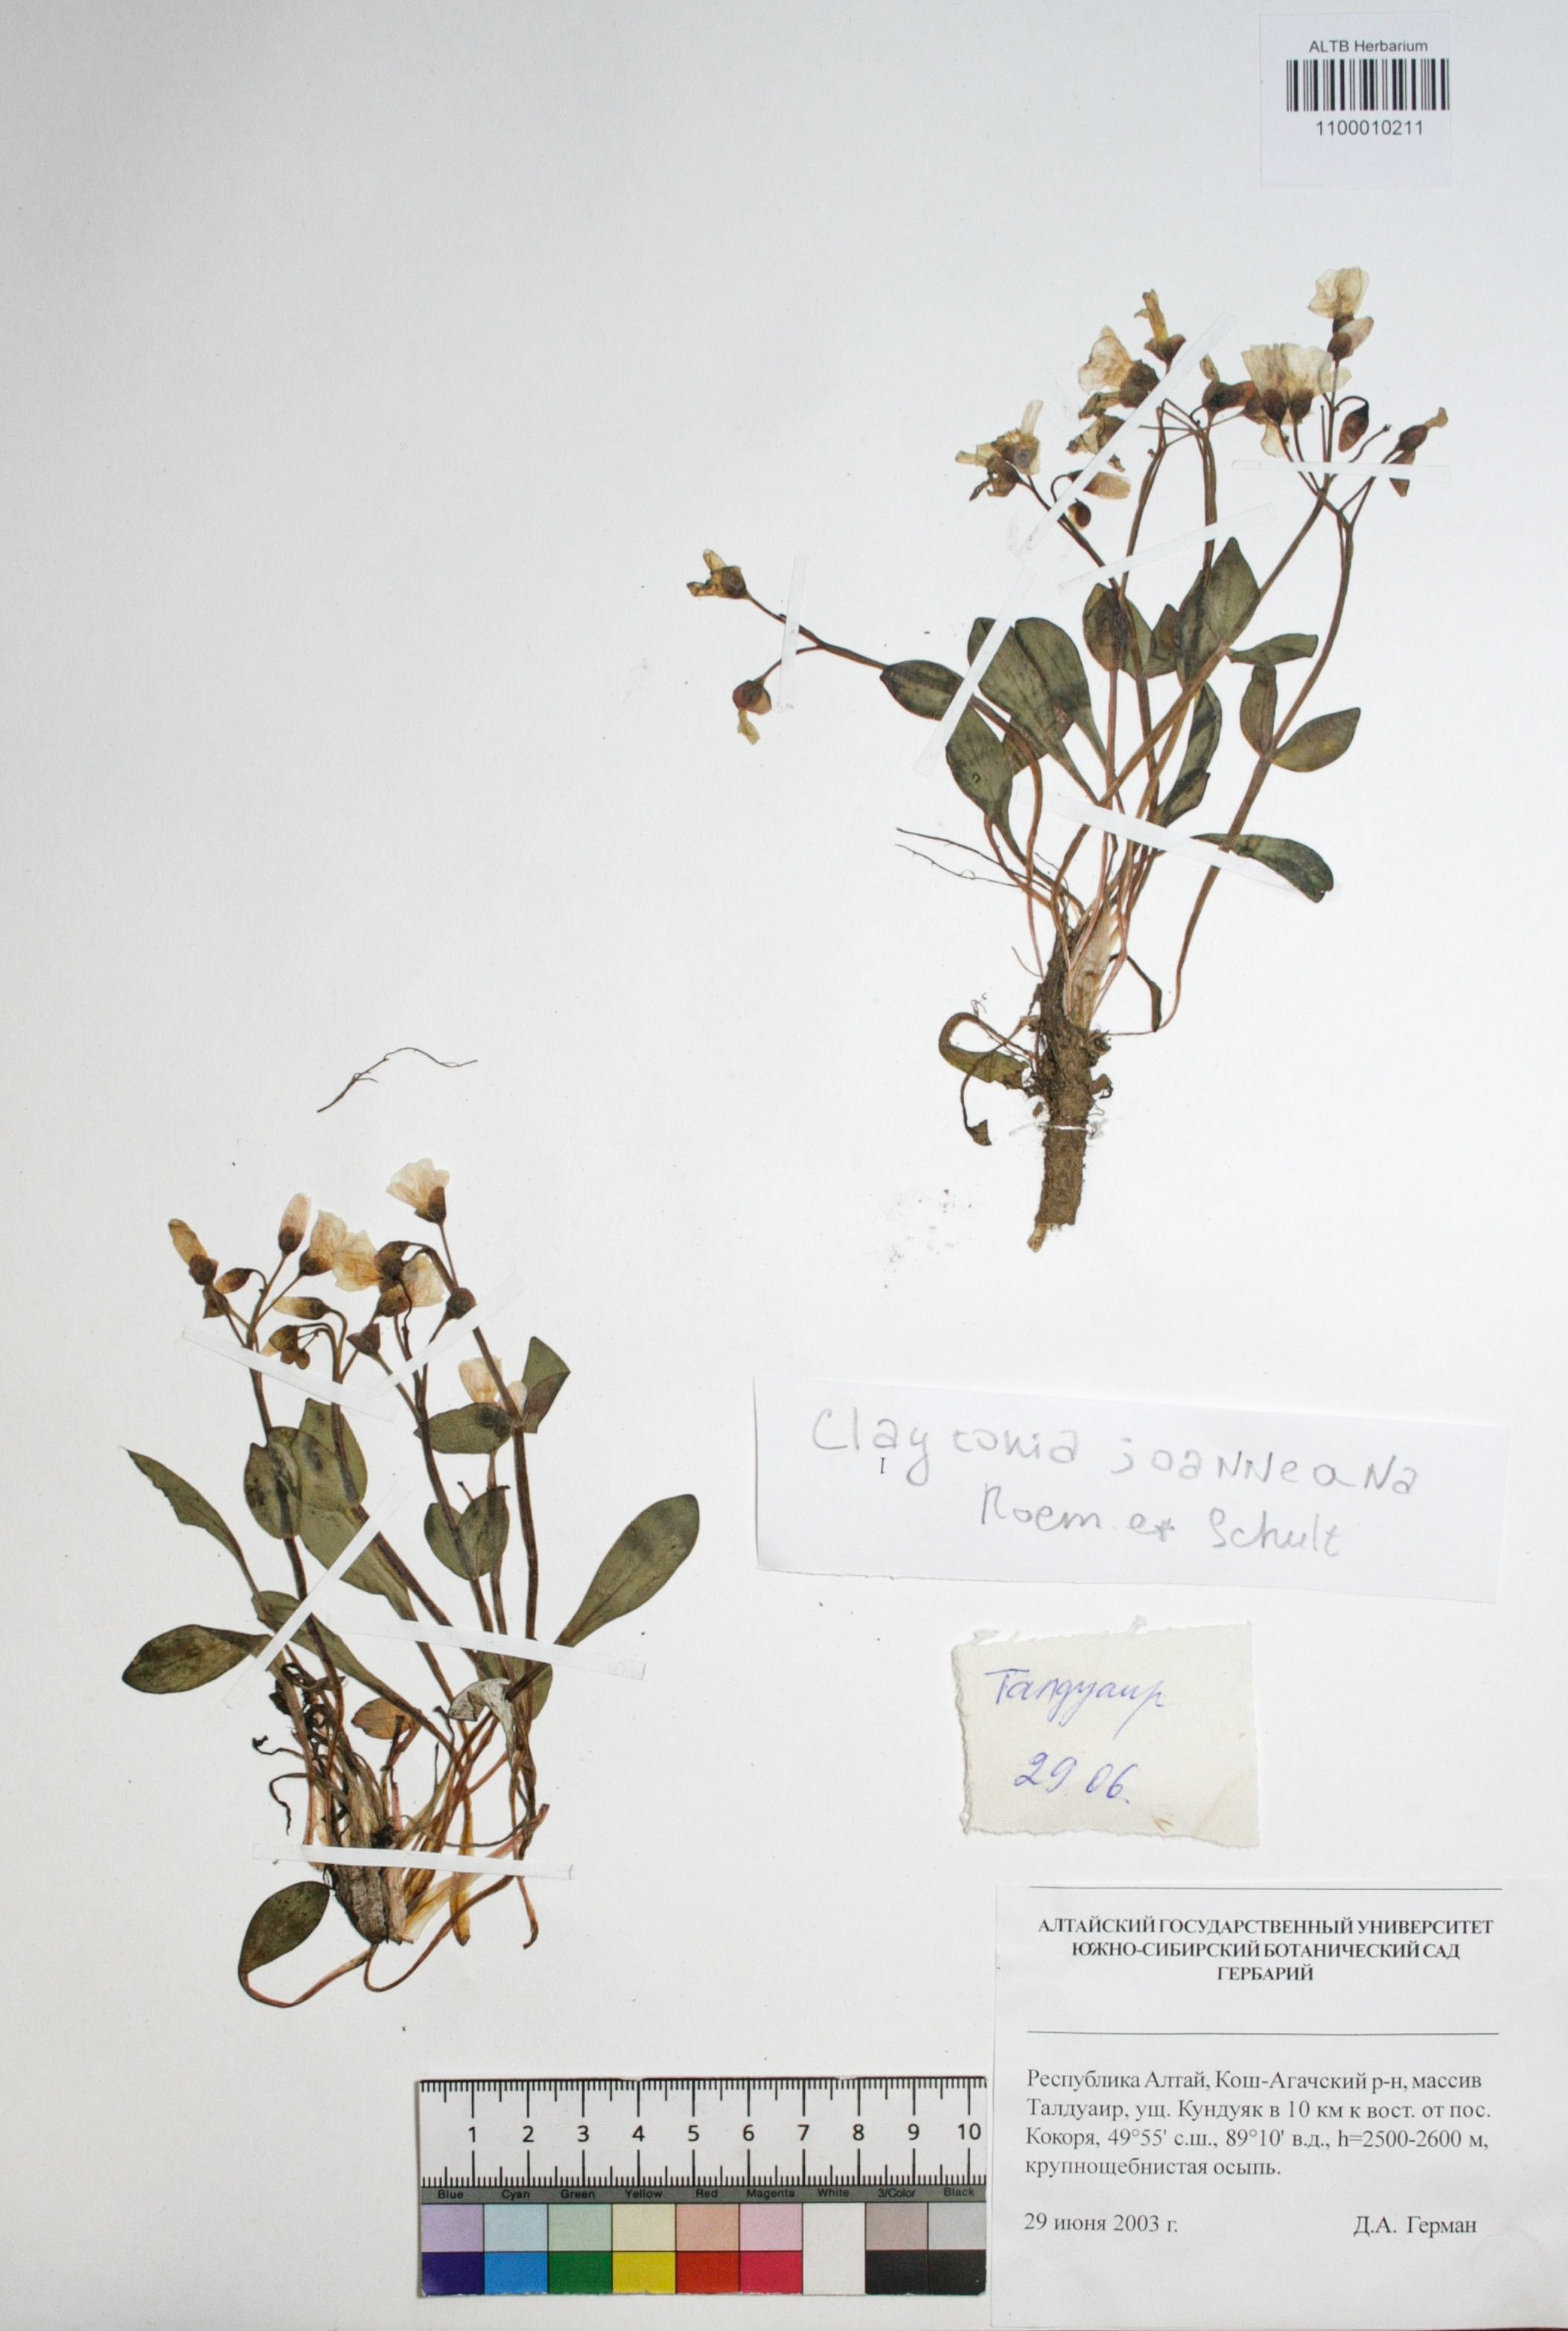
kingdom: Plantae
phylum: Tracheophyta
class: Magnoliopsida
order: Caryophyllales
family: Montiaceae
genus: Claytonia
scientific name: Claytonia joanneana
